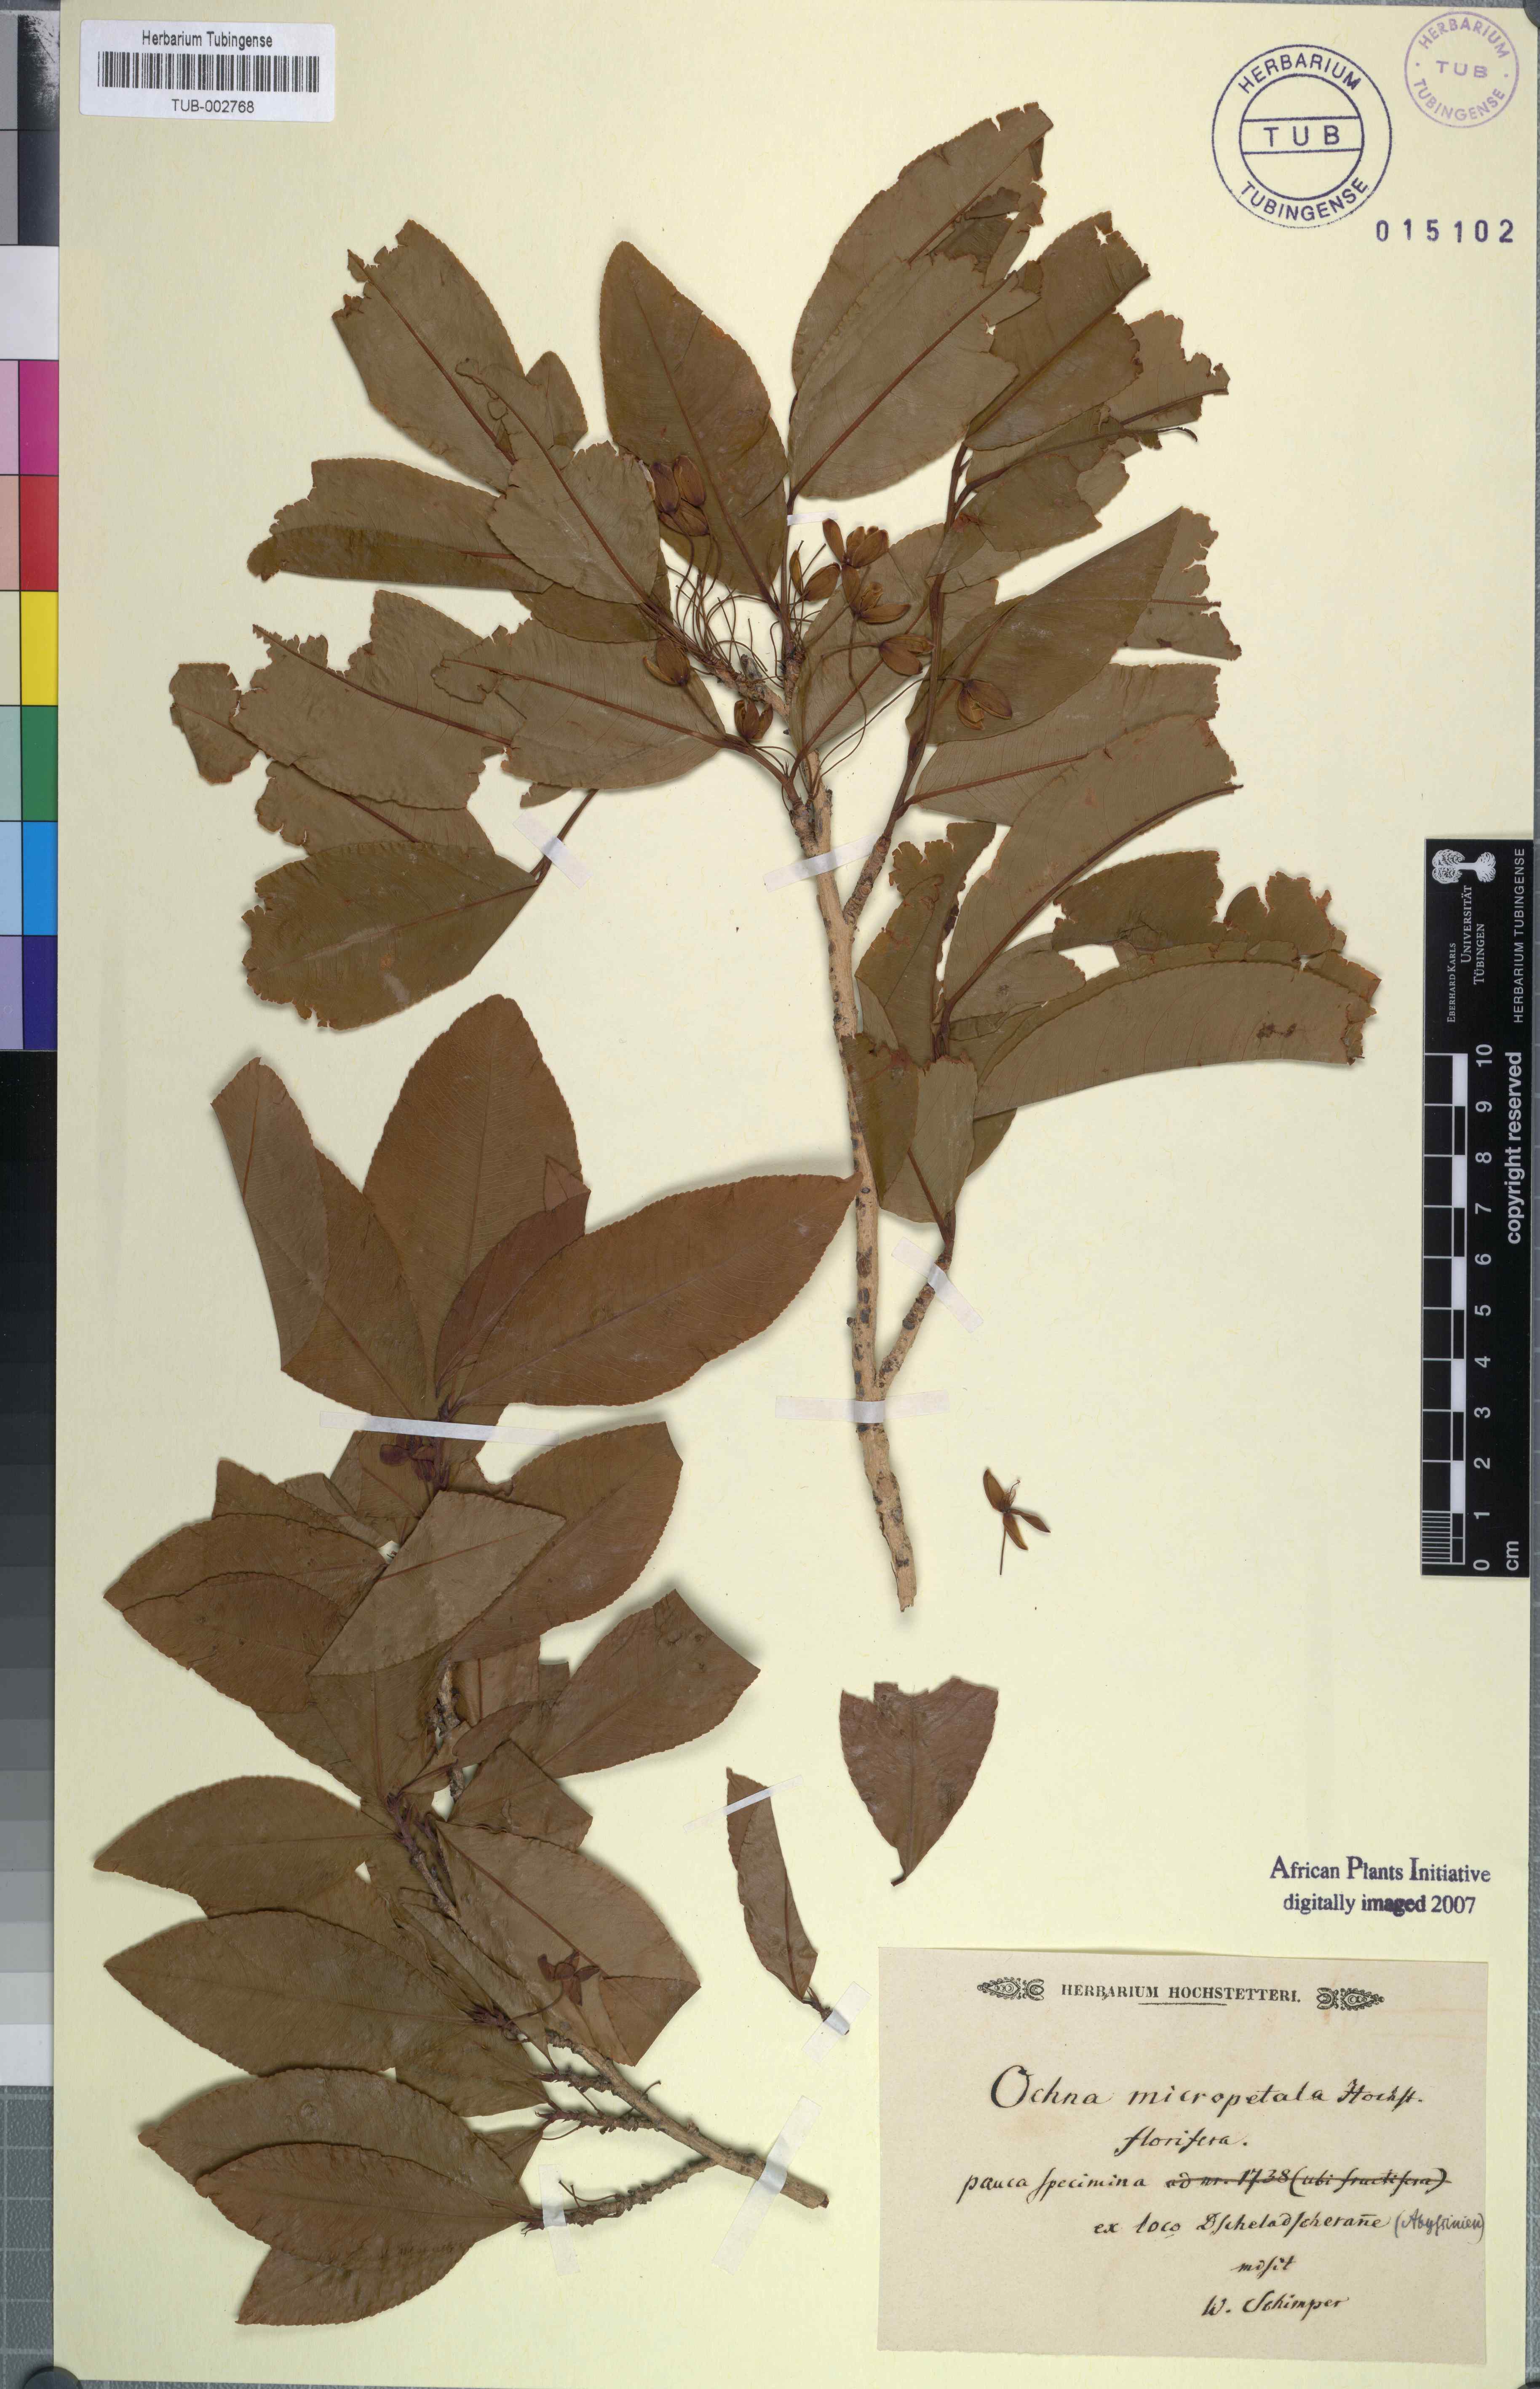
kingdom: Plantae
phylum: Tracheophyta
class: Magnoliopsida
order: Malpighiales
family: Ochnaceae
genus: Ochna
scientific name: Ochna leucophloeos
